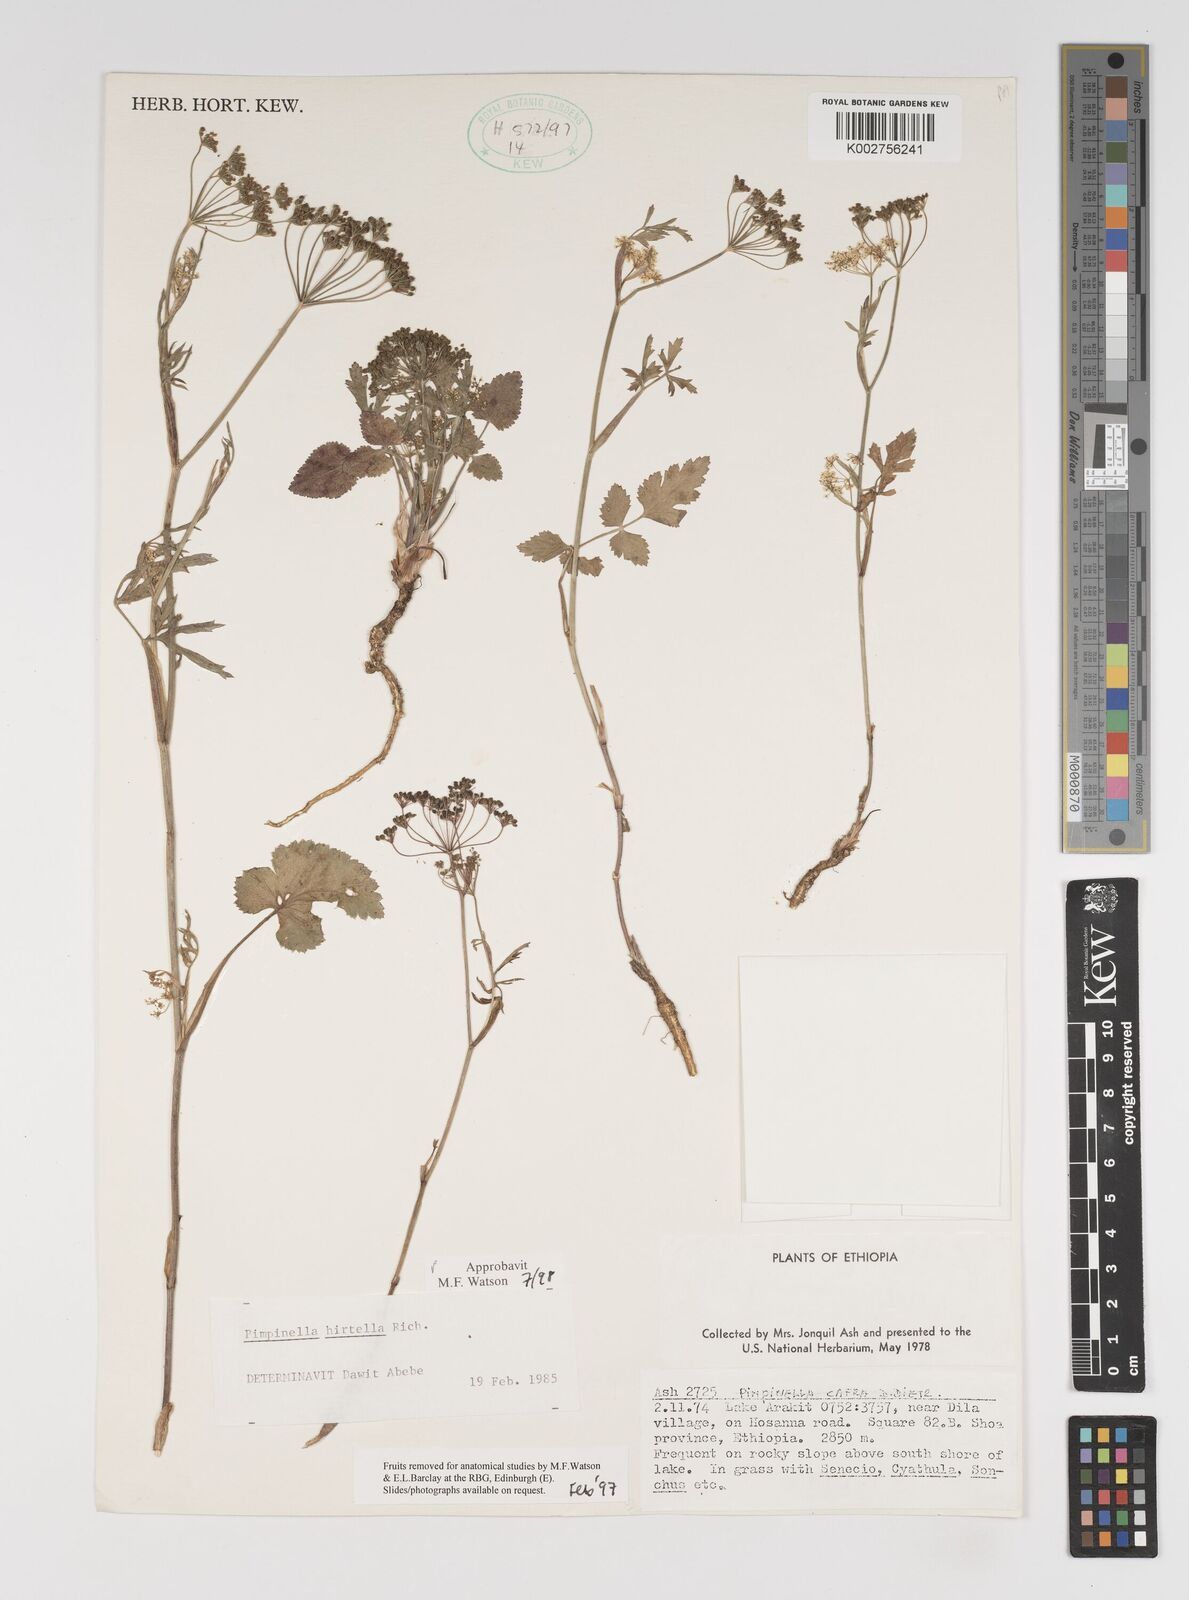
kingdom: Plantae
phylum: Tracheophyta
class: Magnoliopsida
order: Apiales
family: Apiaceae
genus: Pimpinella
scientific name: Pimpinella hirtella
